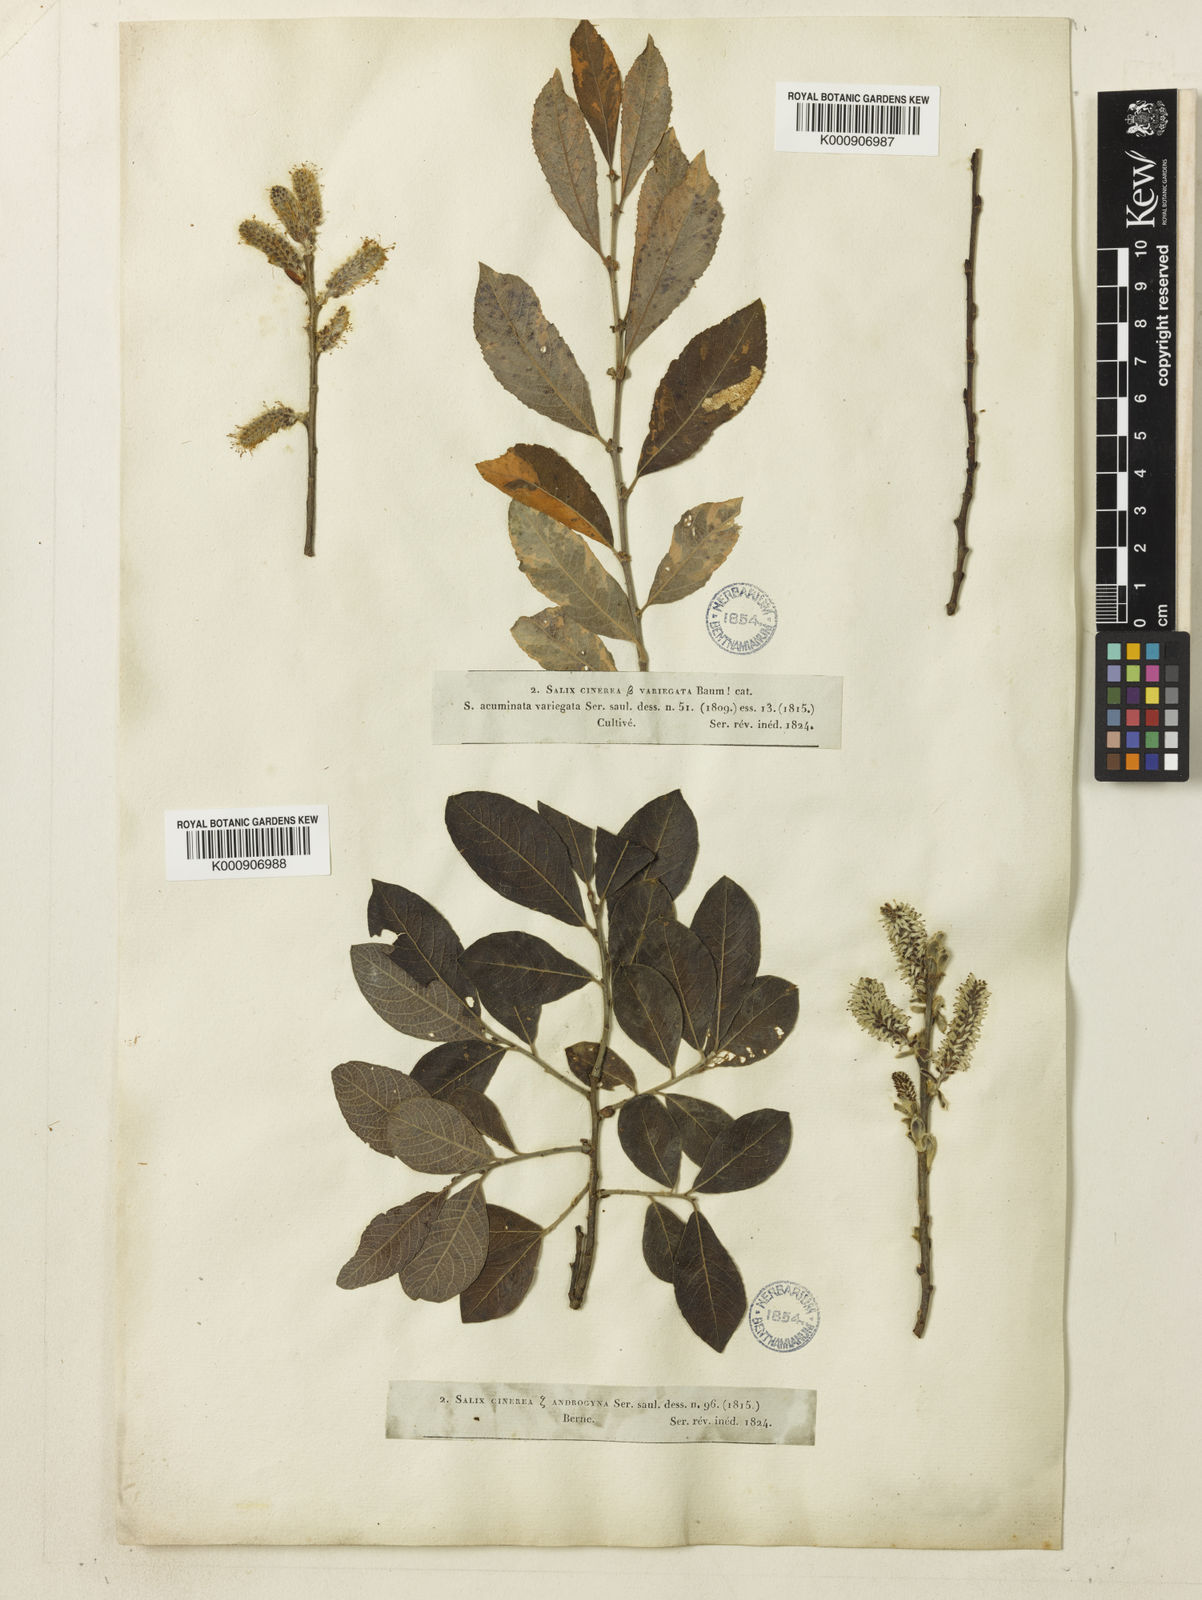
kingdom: Plantae
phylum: Tracheophyta
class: Magnoliopsida
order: Malpighiales
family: Salicaceae
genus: Salix
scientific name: Salix cinerea
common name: Common sallow
